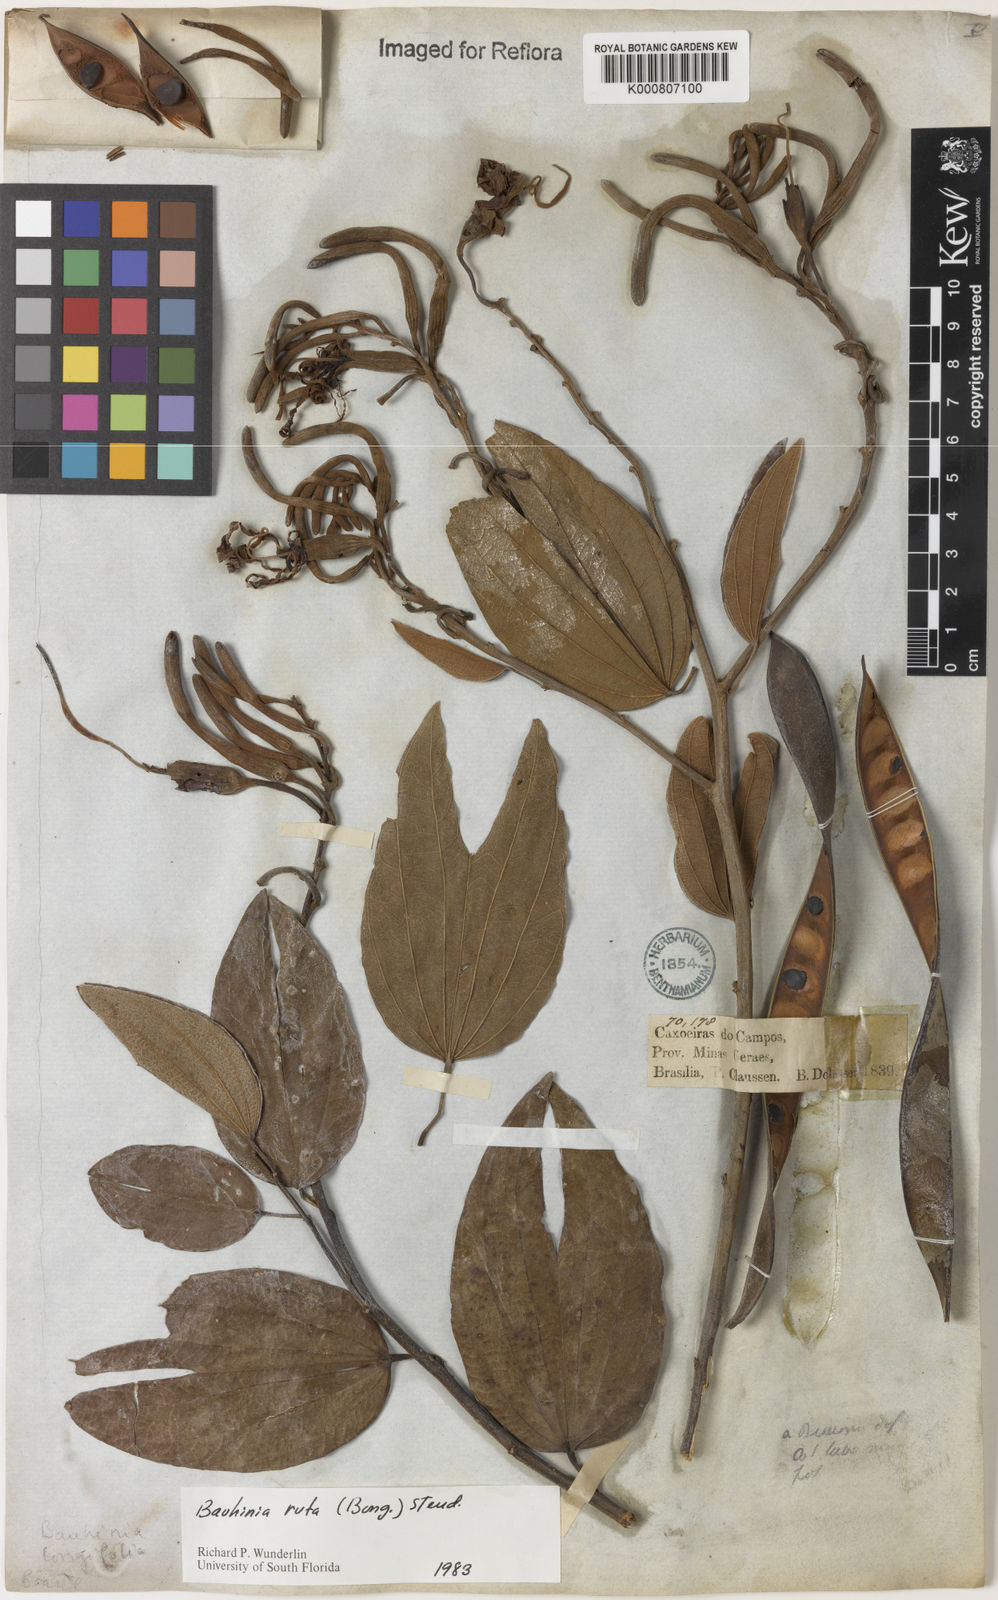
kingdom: Plantae
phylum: Tracheophyta
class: Magnoliopsida
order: Fabales
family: Fabaceae
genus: Bauhinia
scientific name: Bauhinia rufa
